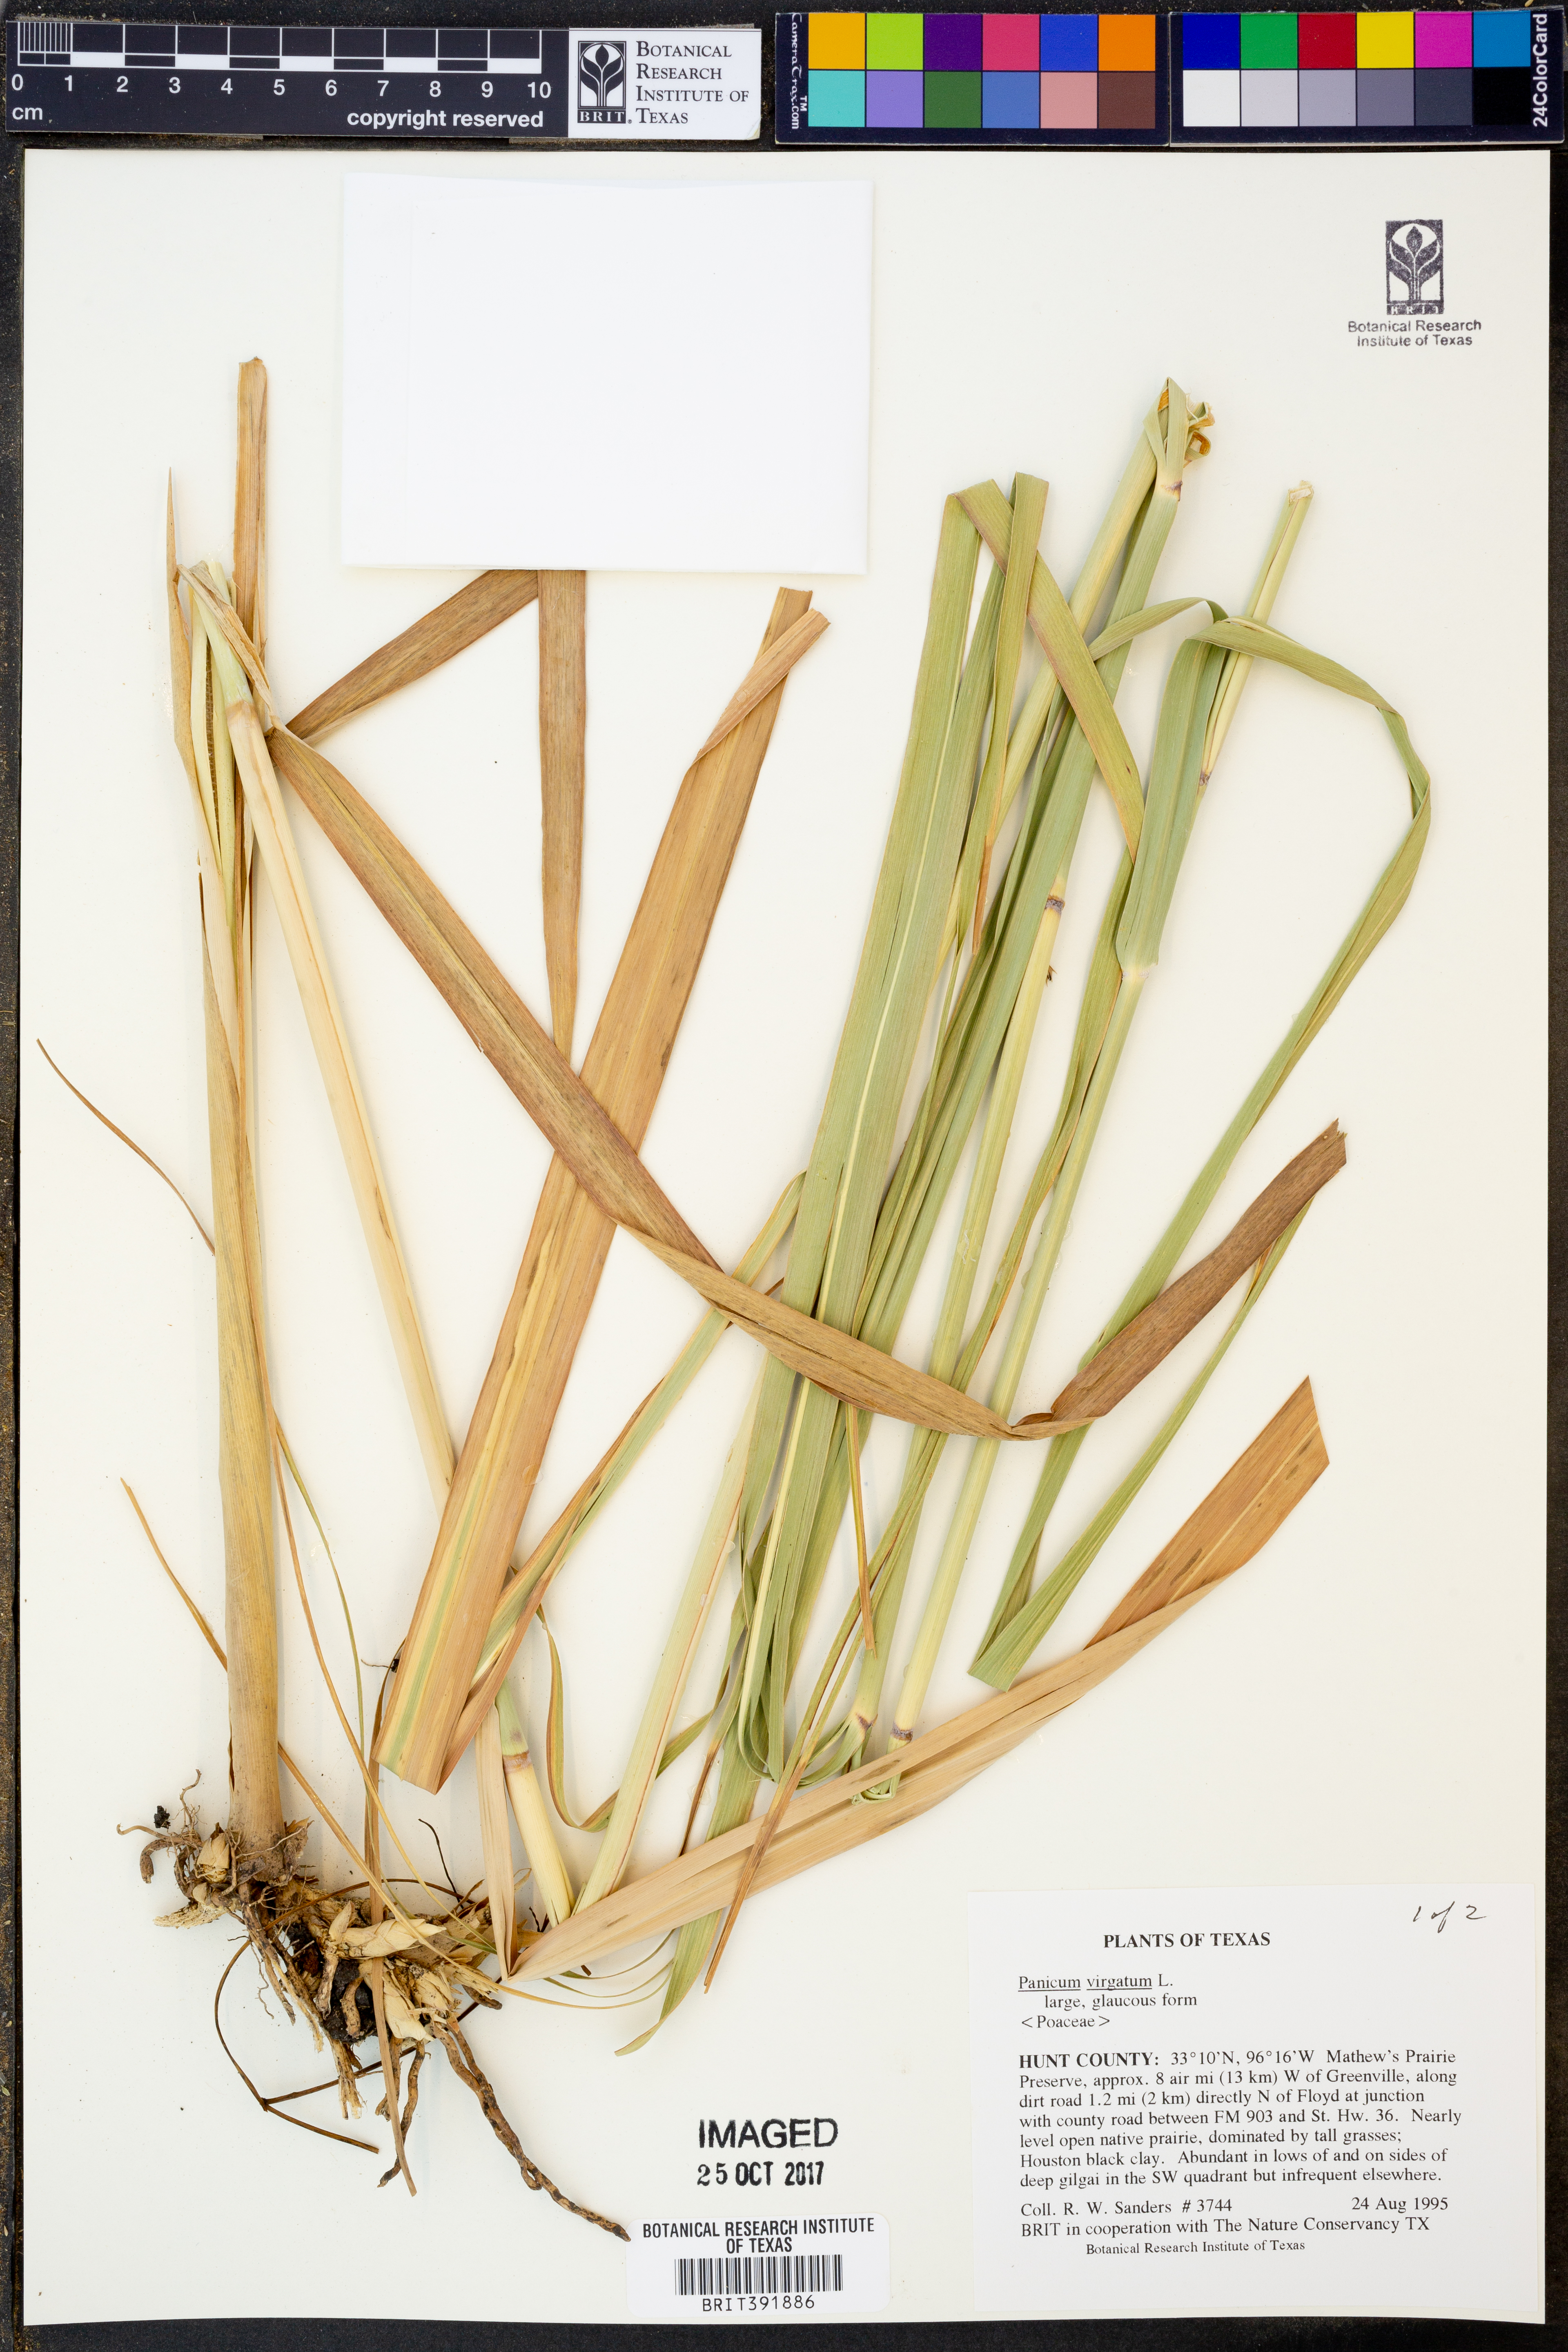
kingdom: Plantae
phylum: Tracheophyta
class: Liliopsida
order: Poales
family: Poaceae
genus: Panicum
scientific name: Panicum virgatum
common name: Switchgrass
